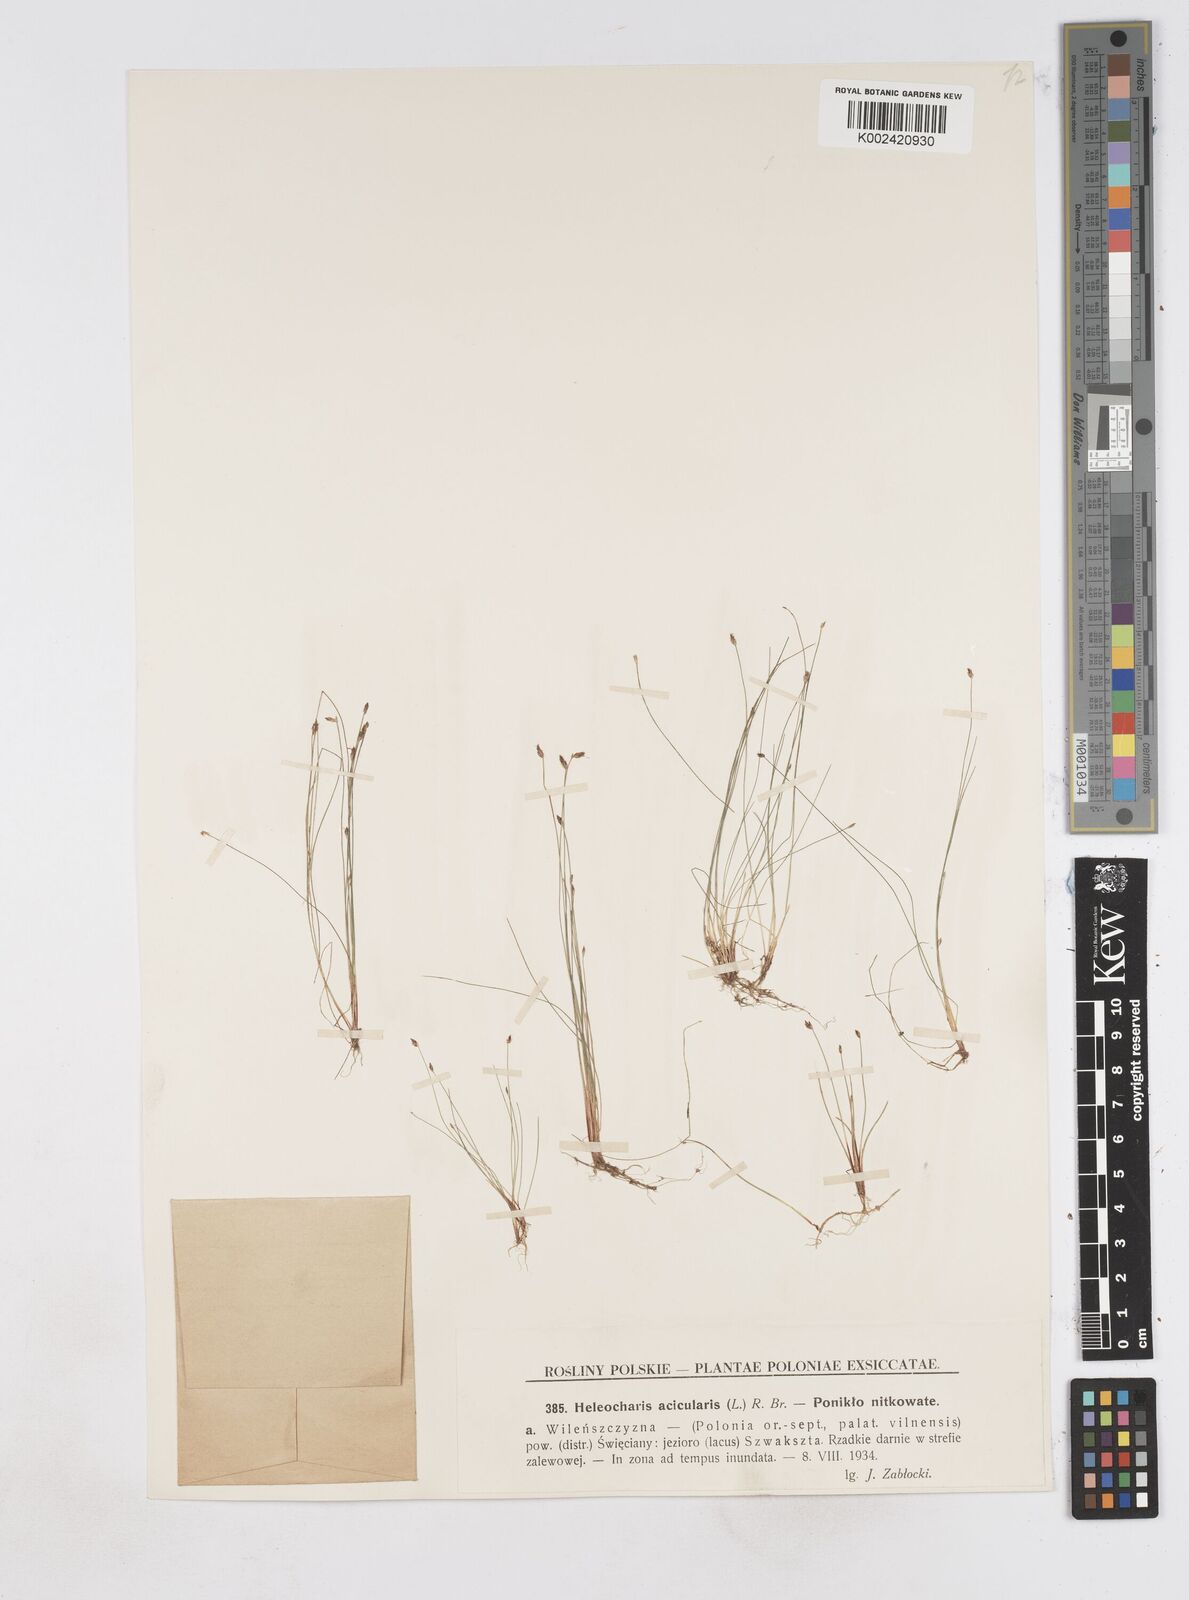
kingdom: Plantae
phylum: Tracheophyta
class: Liliopsida
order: Poales
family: Cyperaceae
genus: Eleocharis
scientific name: Eleocharis acicularis
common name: Needle spike-rush
